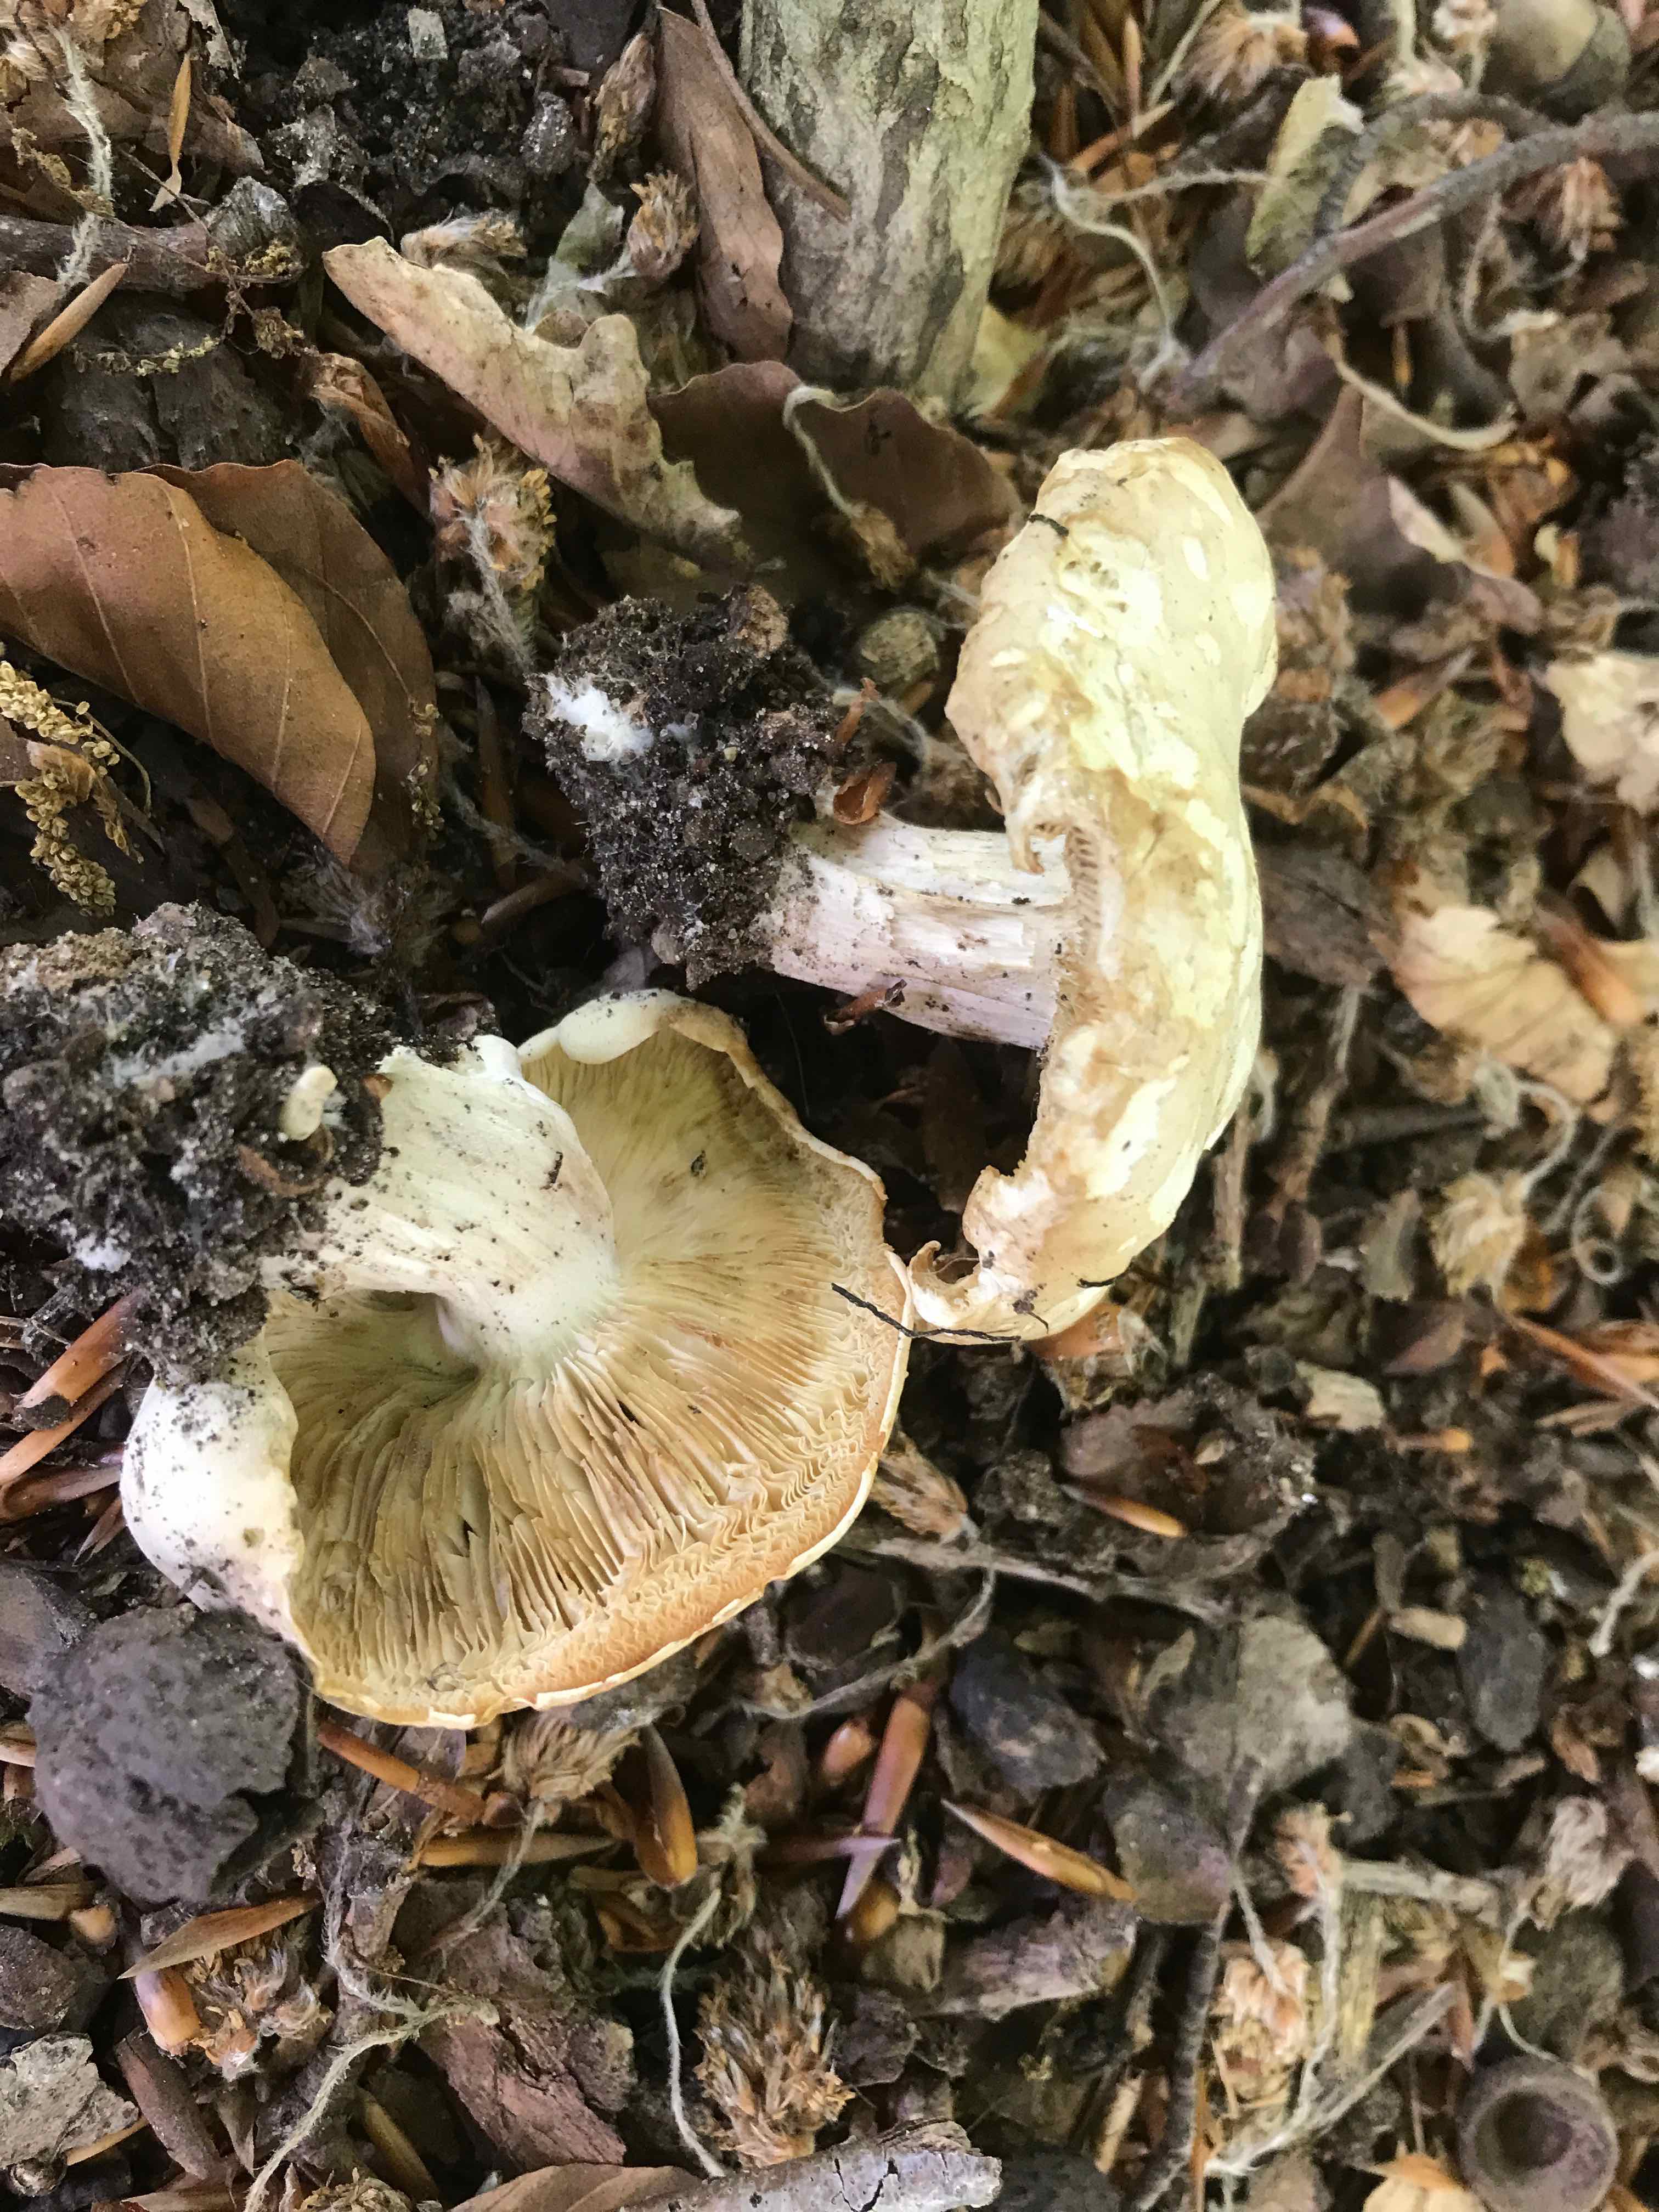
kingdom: Fungi
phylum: Basidiomycota
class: Agaricomycetes
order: Agaricales
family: Lyophyllaceae
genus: Calocybe
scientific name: Calocybe gambosa
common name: vårmusseron
